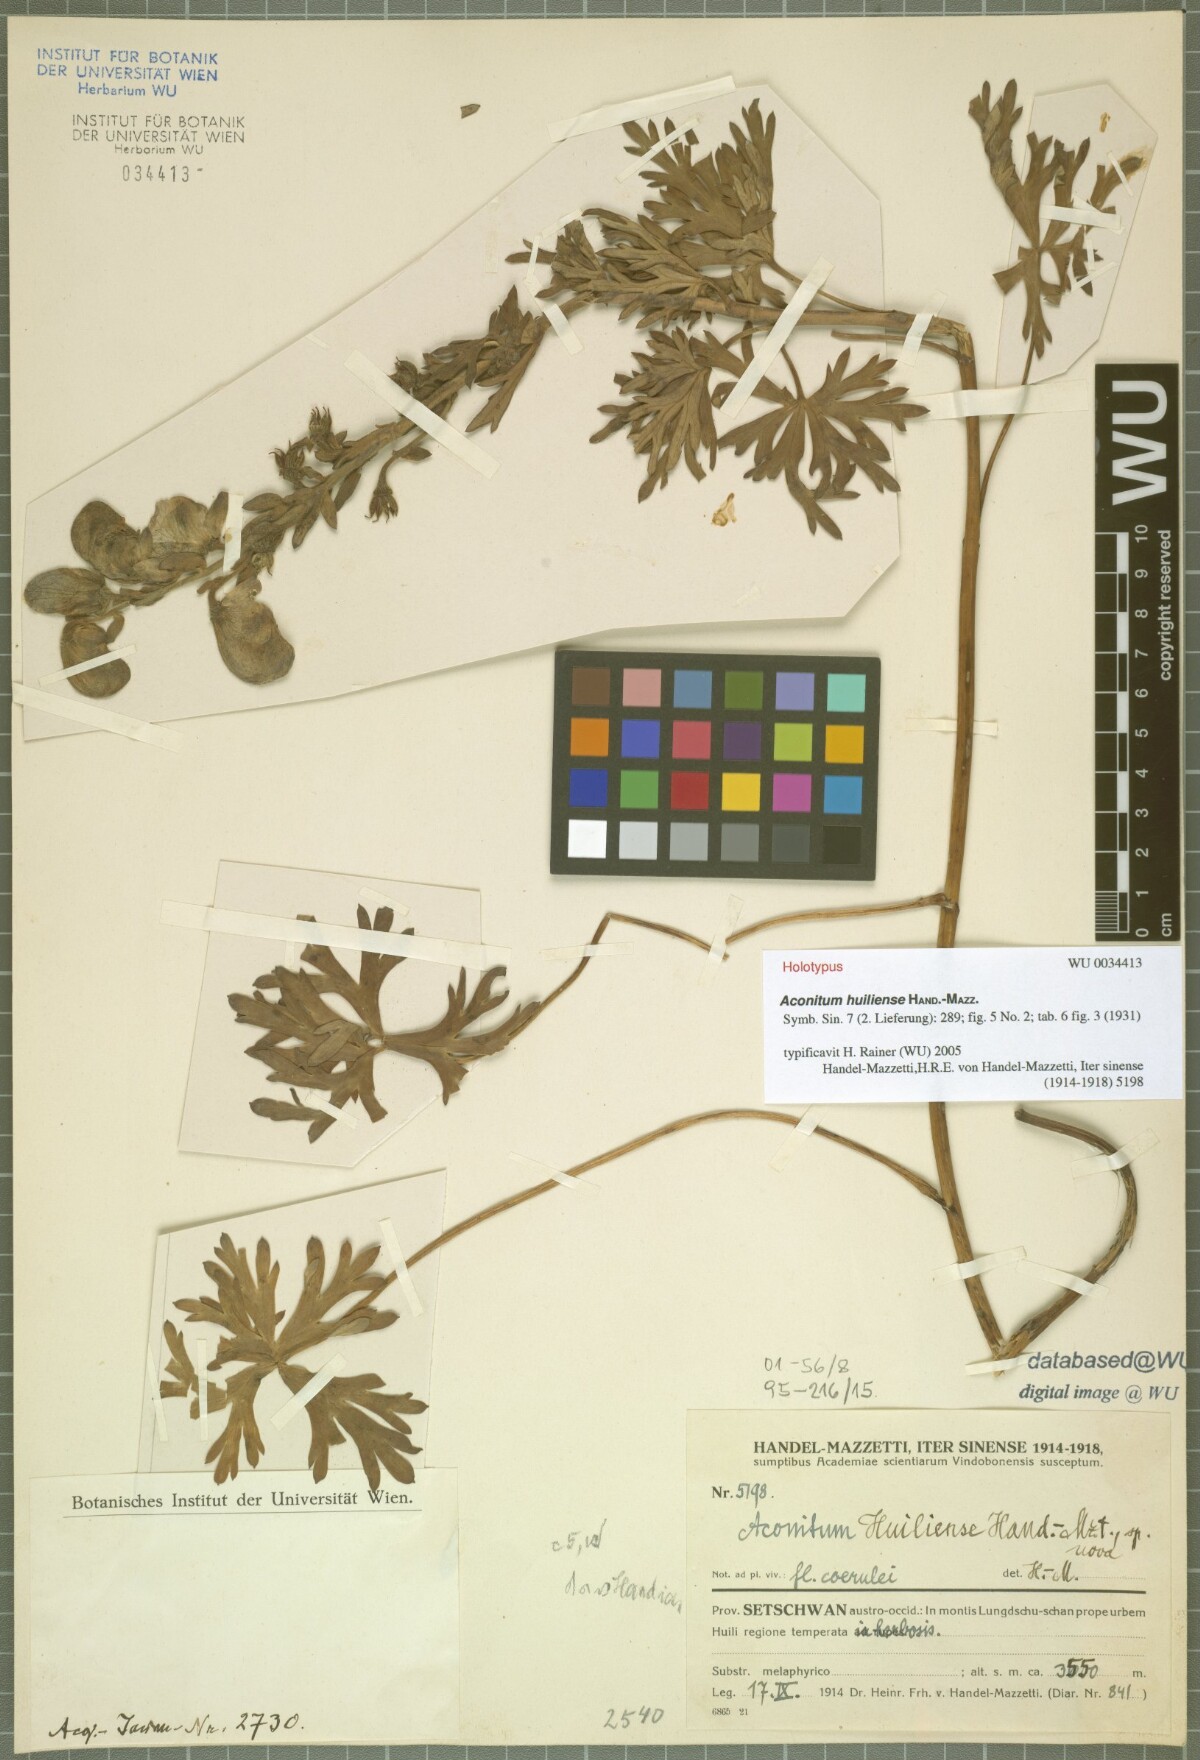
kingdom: Plantae
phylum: Tracheophyta
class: Magnoliopsida
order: Ranunculales
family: Ranunculaceae
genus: Aconitum
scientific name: Aconitum huiliense
